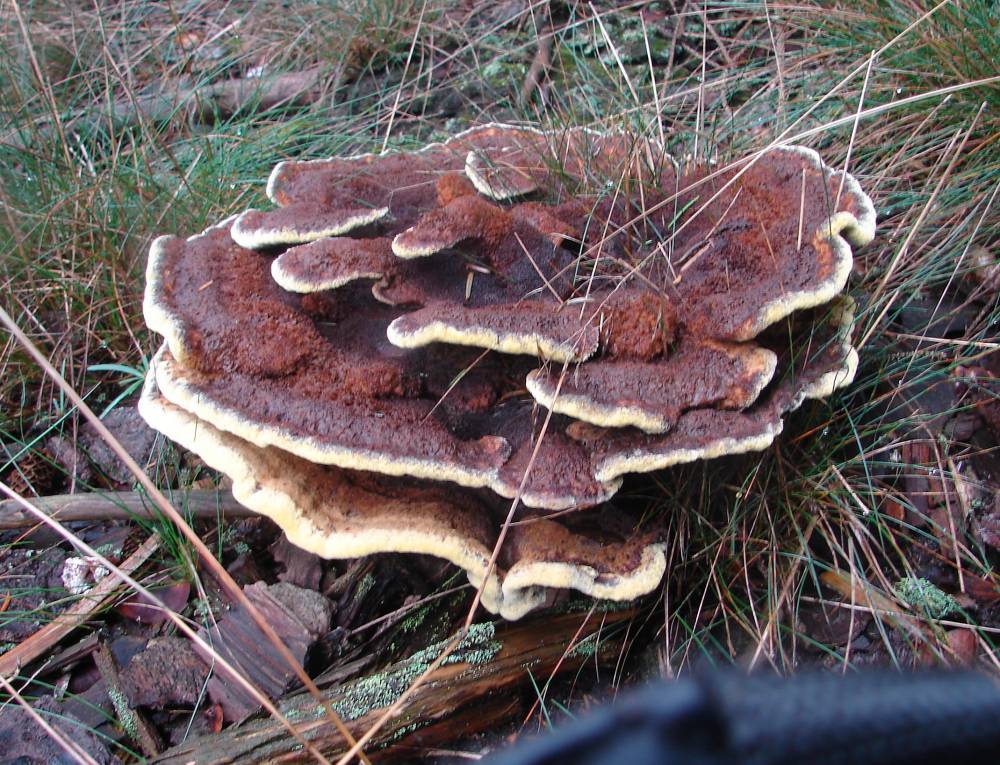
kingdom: Fungi
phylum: Basidiomycota
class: Agaricomycetes
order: Polyporales
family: Laetiporaceae
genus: Phaeolus
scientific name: Phaeolus schweinitzii
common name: brunporesvamp
